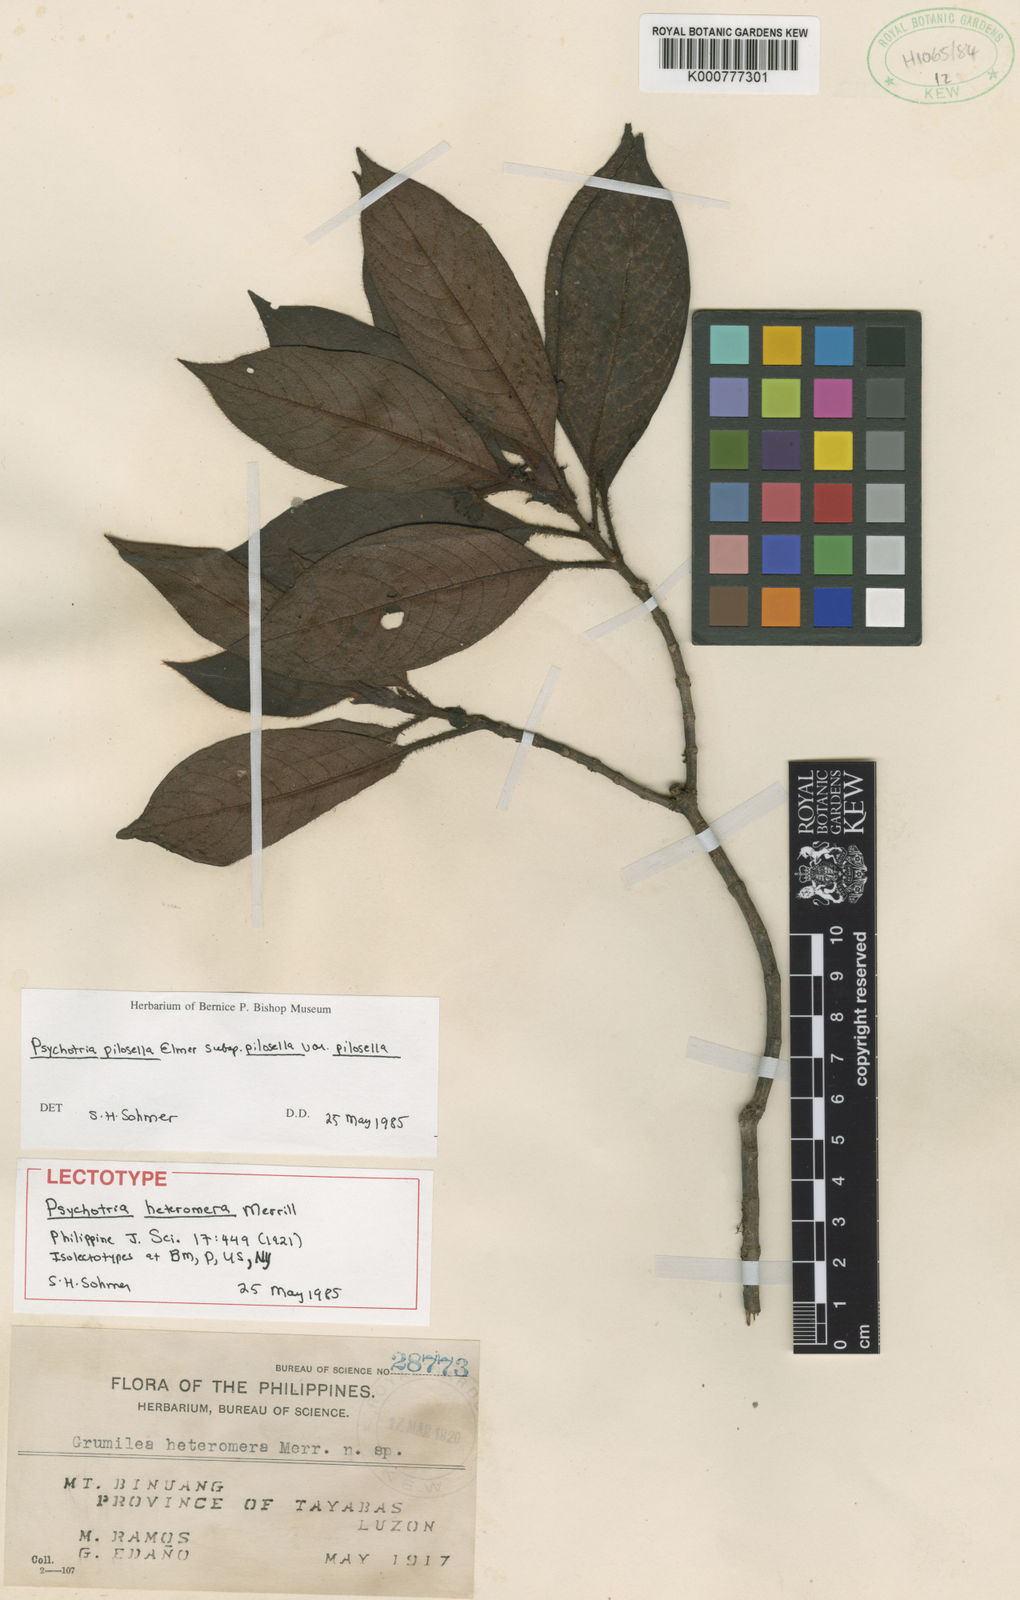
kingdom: Plantae
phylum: Tracheophyta
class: Magnoliopsida
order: Gentianales
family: Rubiaceae
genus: Psychotria
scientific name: Psychotria pilosella
